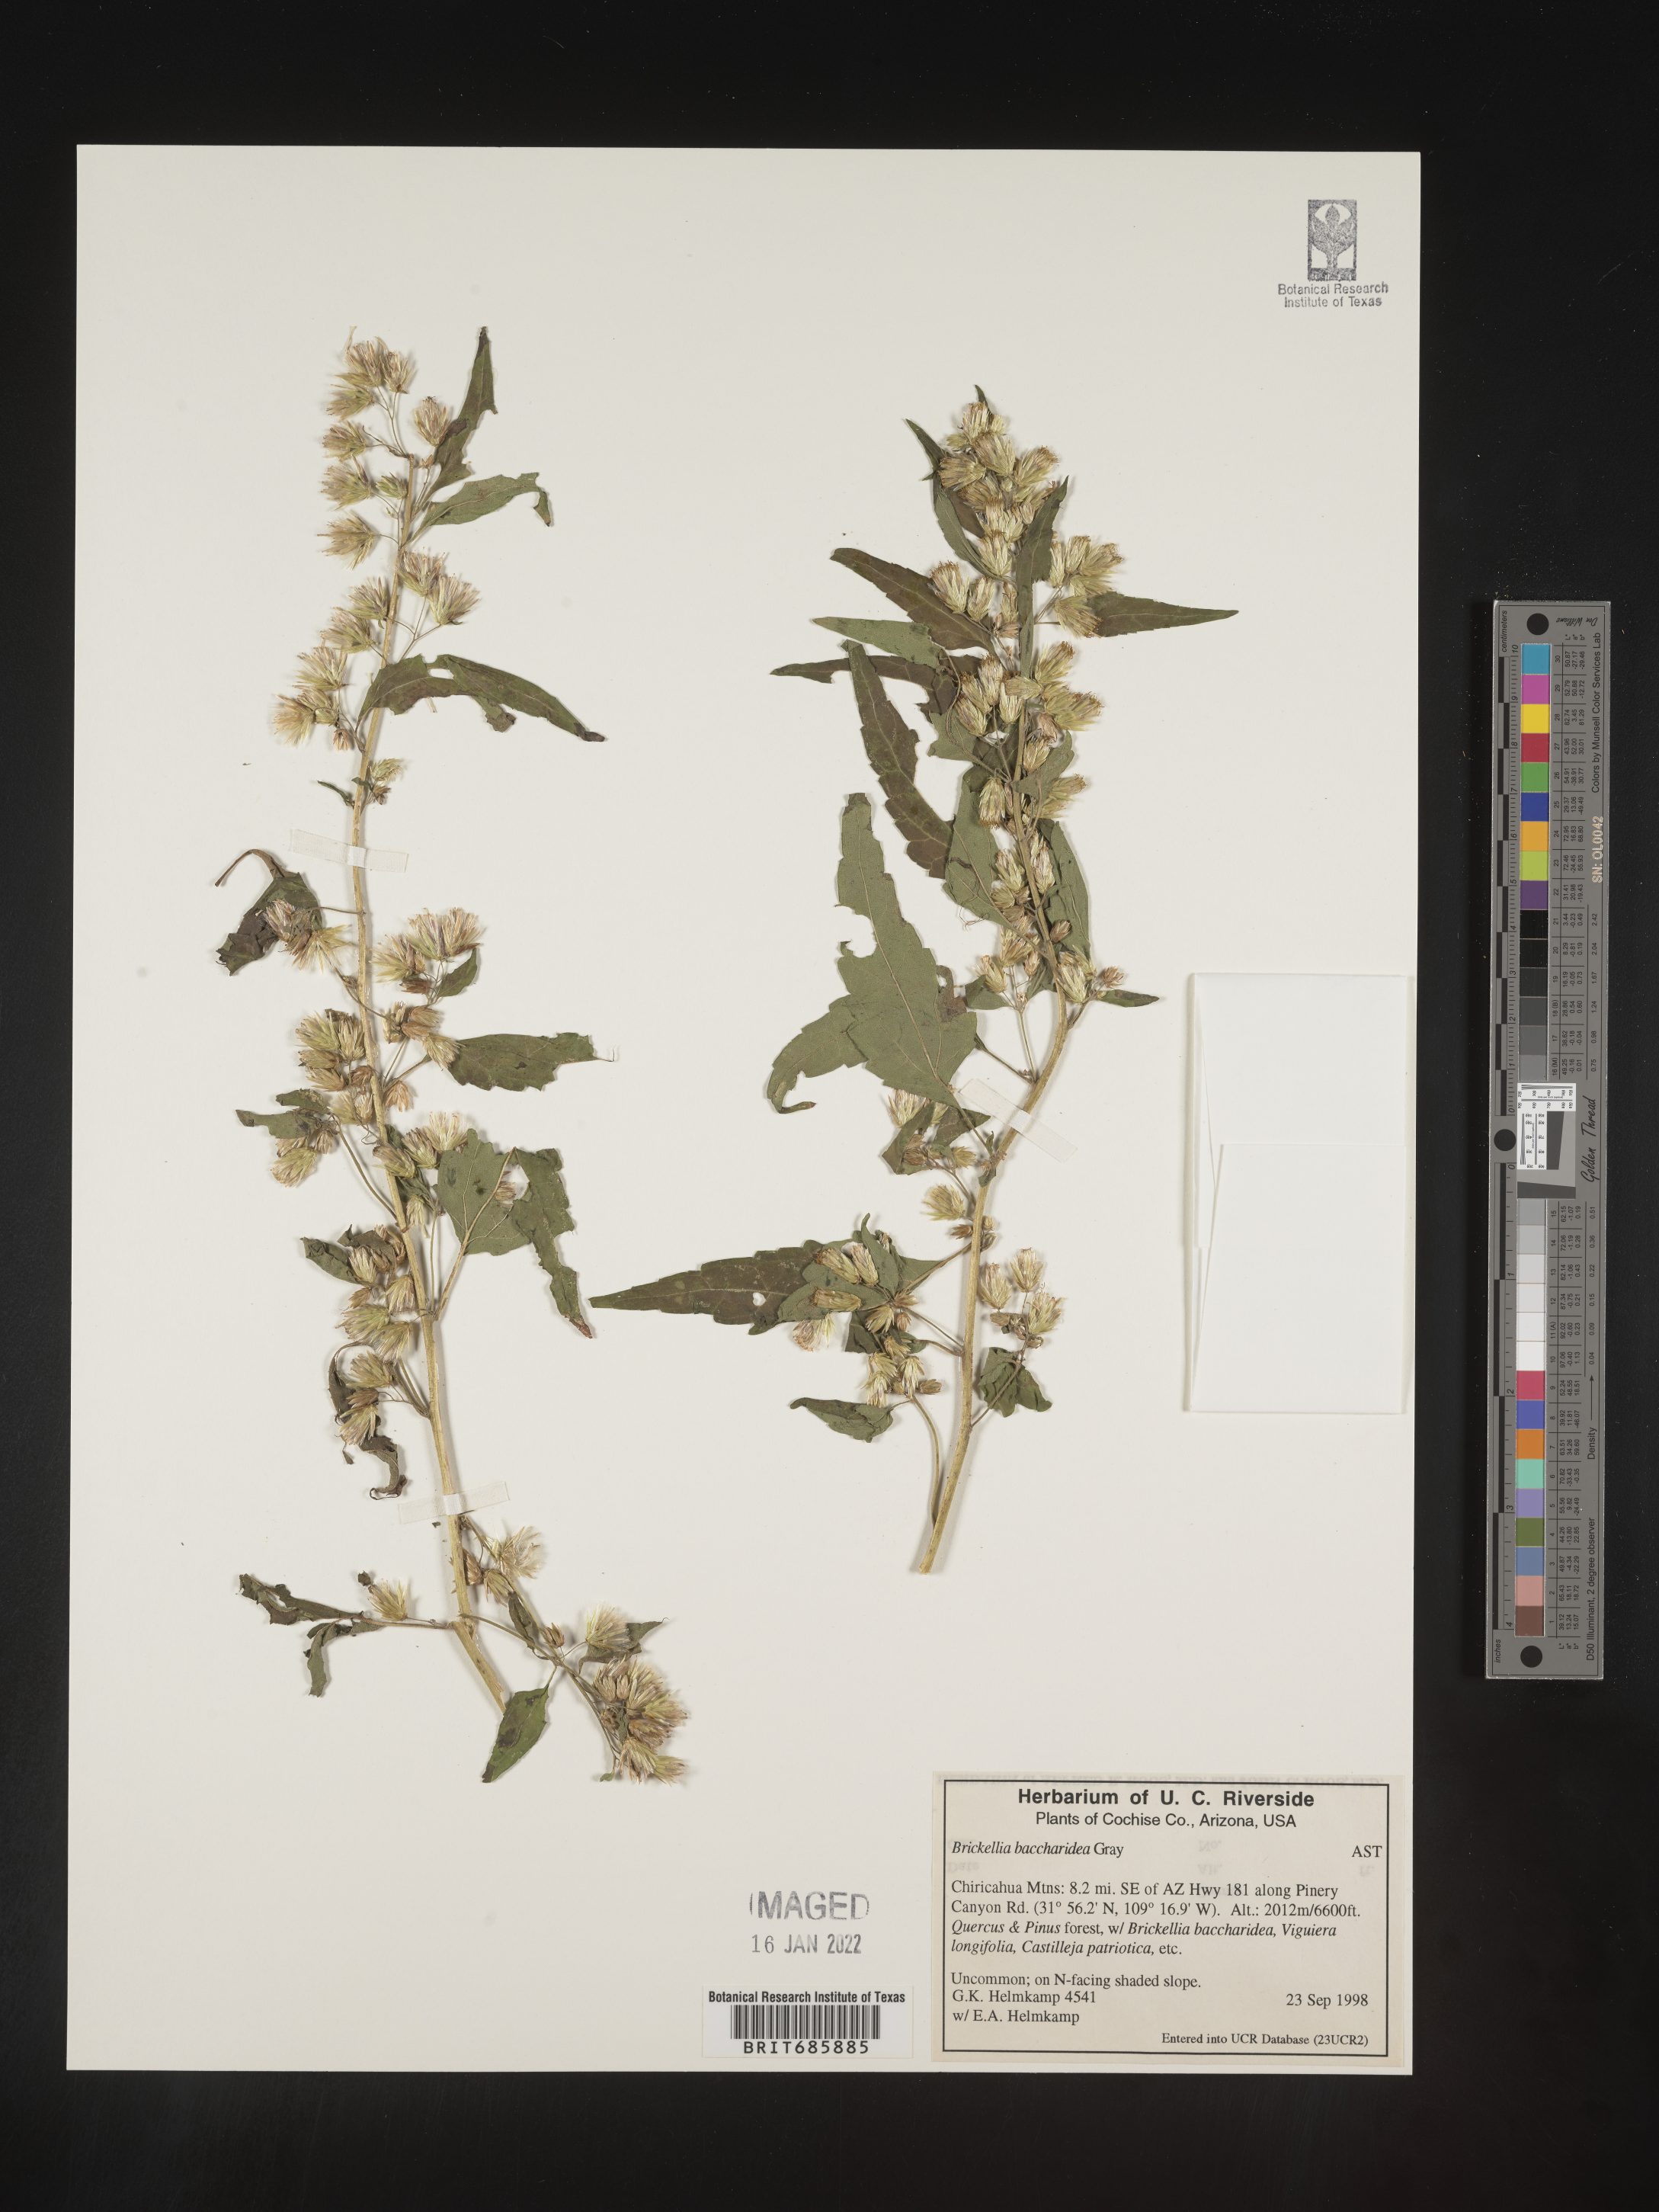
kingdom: Plantae
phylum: Tracheophyta
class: Magnoliopsida
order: Asterales
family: Asteraceae
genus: Brickellia
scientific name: Brickellia baccharidea
